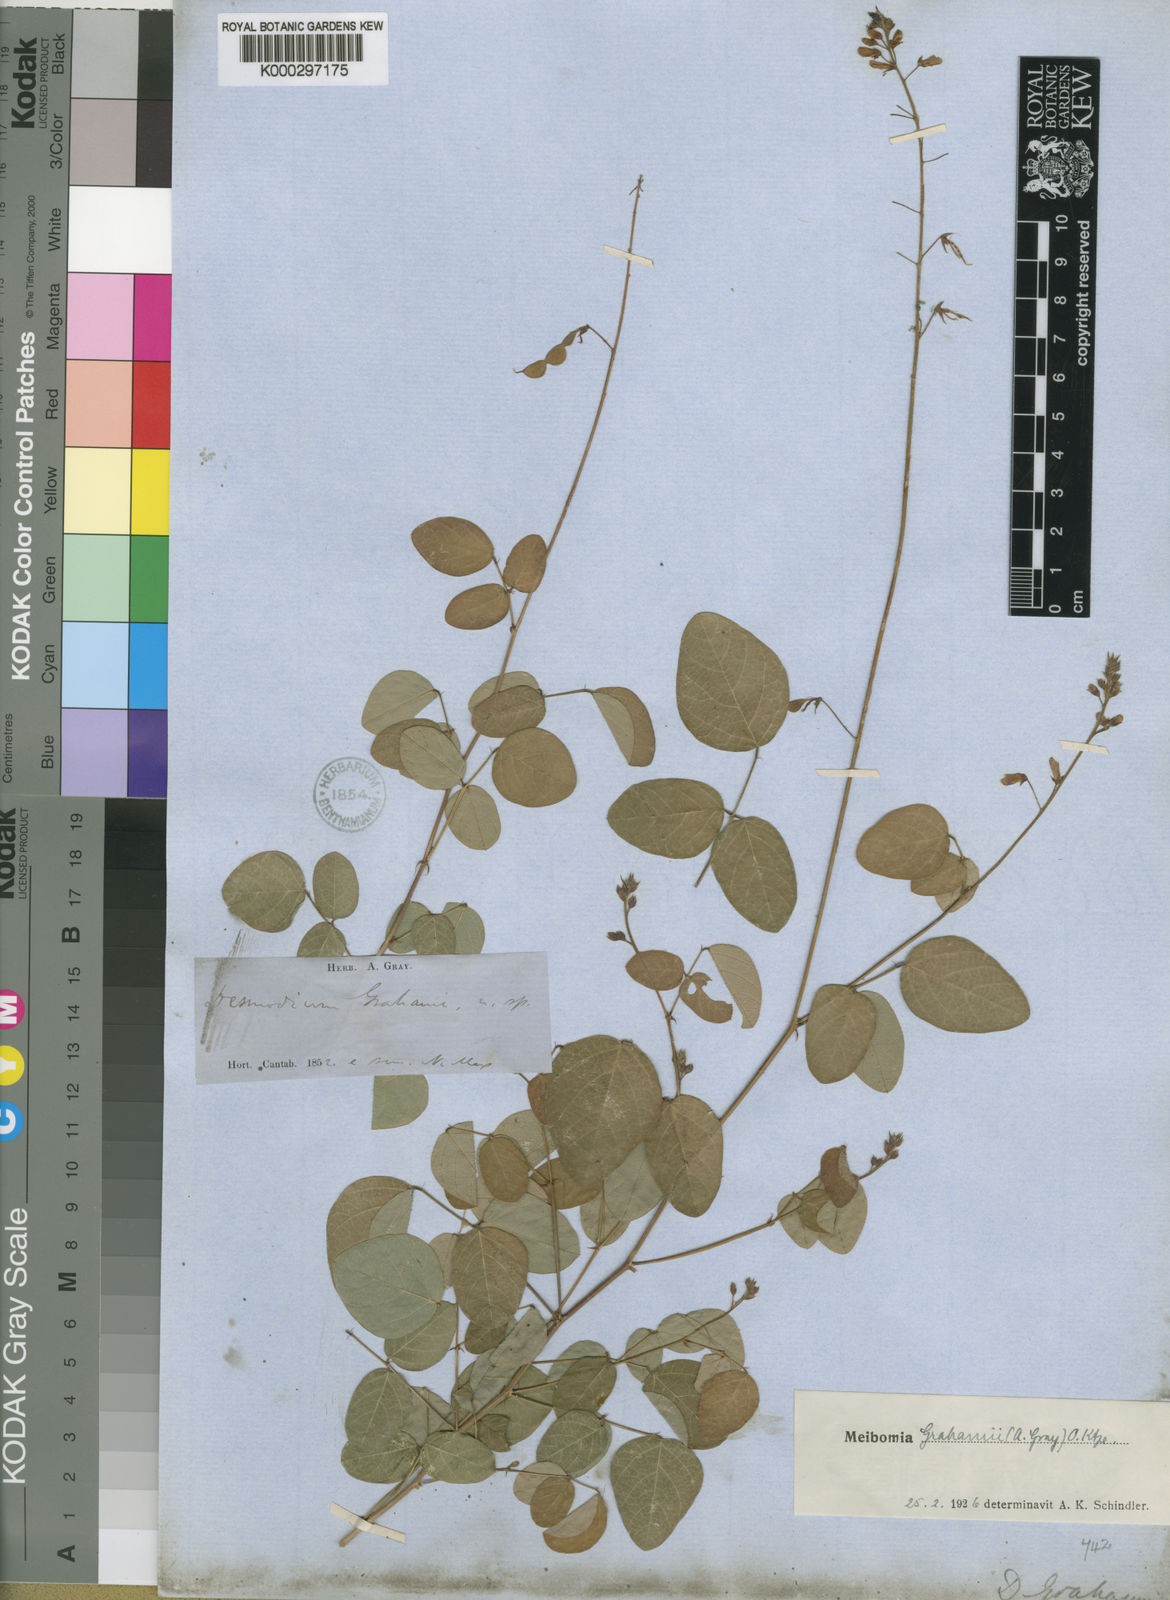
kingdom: Plantae
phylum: Tracheophyta
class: Magnoliopsida
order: Fabales
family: Fabaceae
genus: Desmodium
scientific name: Desmodium grahamii
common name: Graham's tick-trefoil
